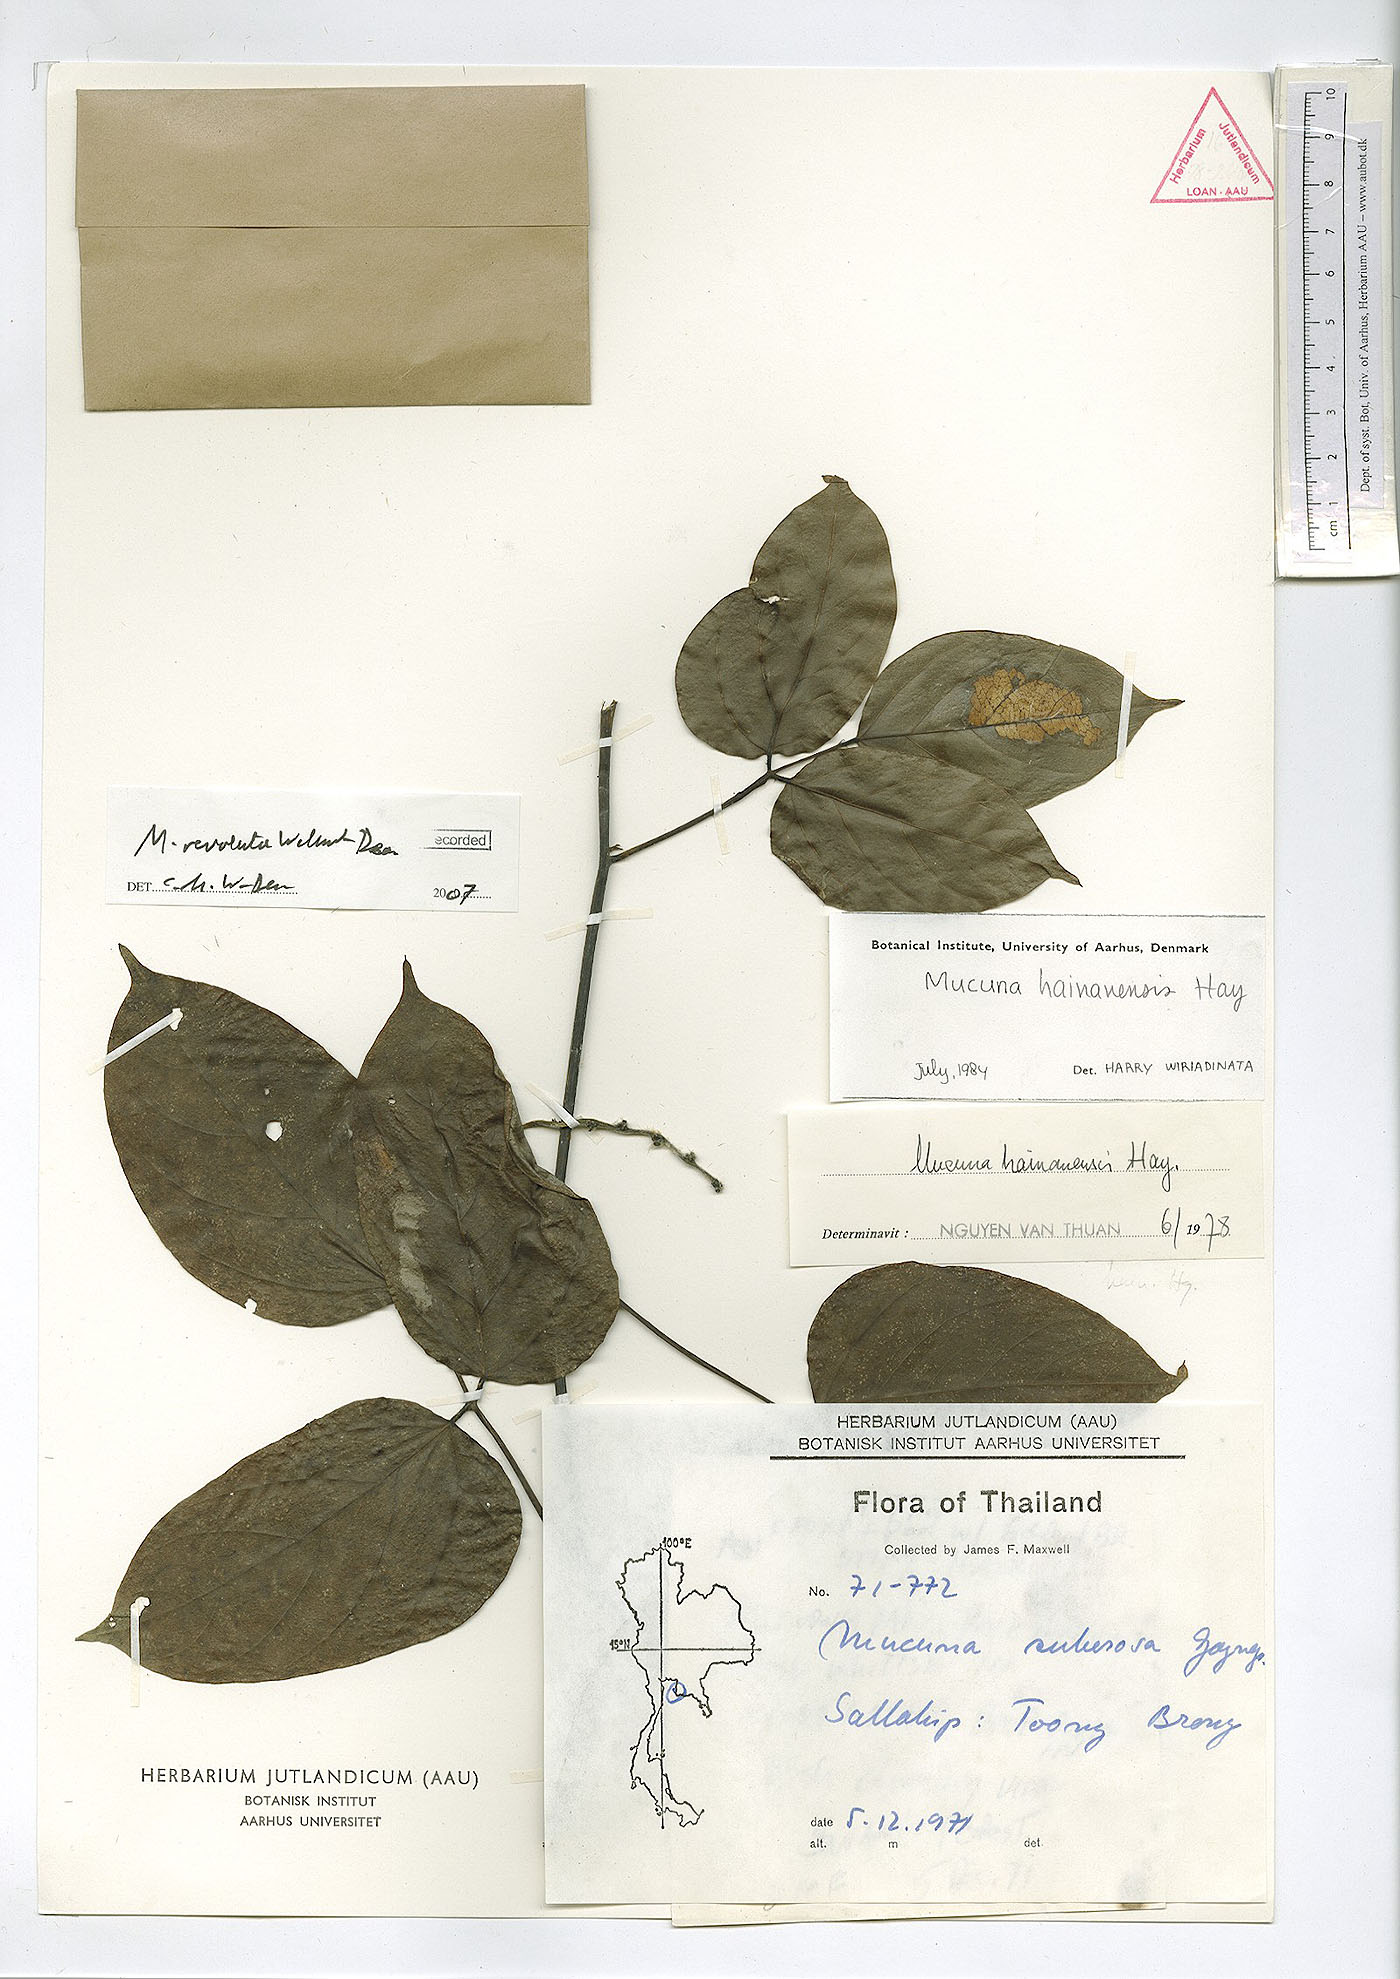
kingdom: Plantae
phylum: Tracheophyta
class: Magnoliopsida
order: Fabales
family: Fabaceae
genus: Mucuna
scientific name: Mucuna revoluta
